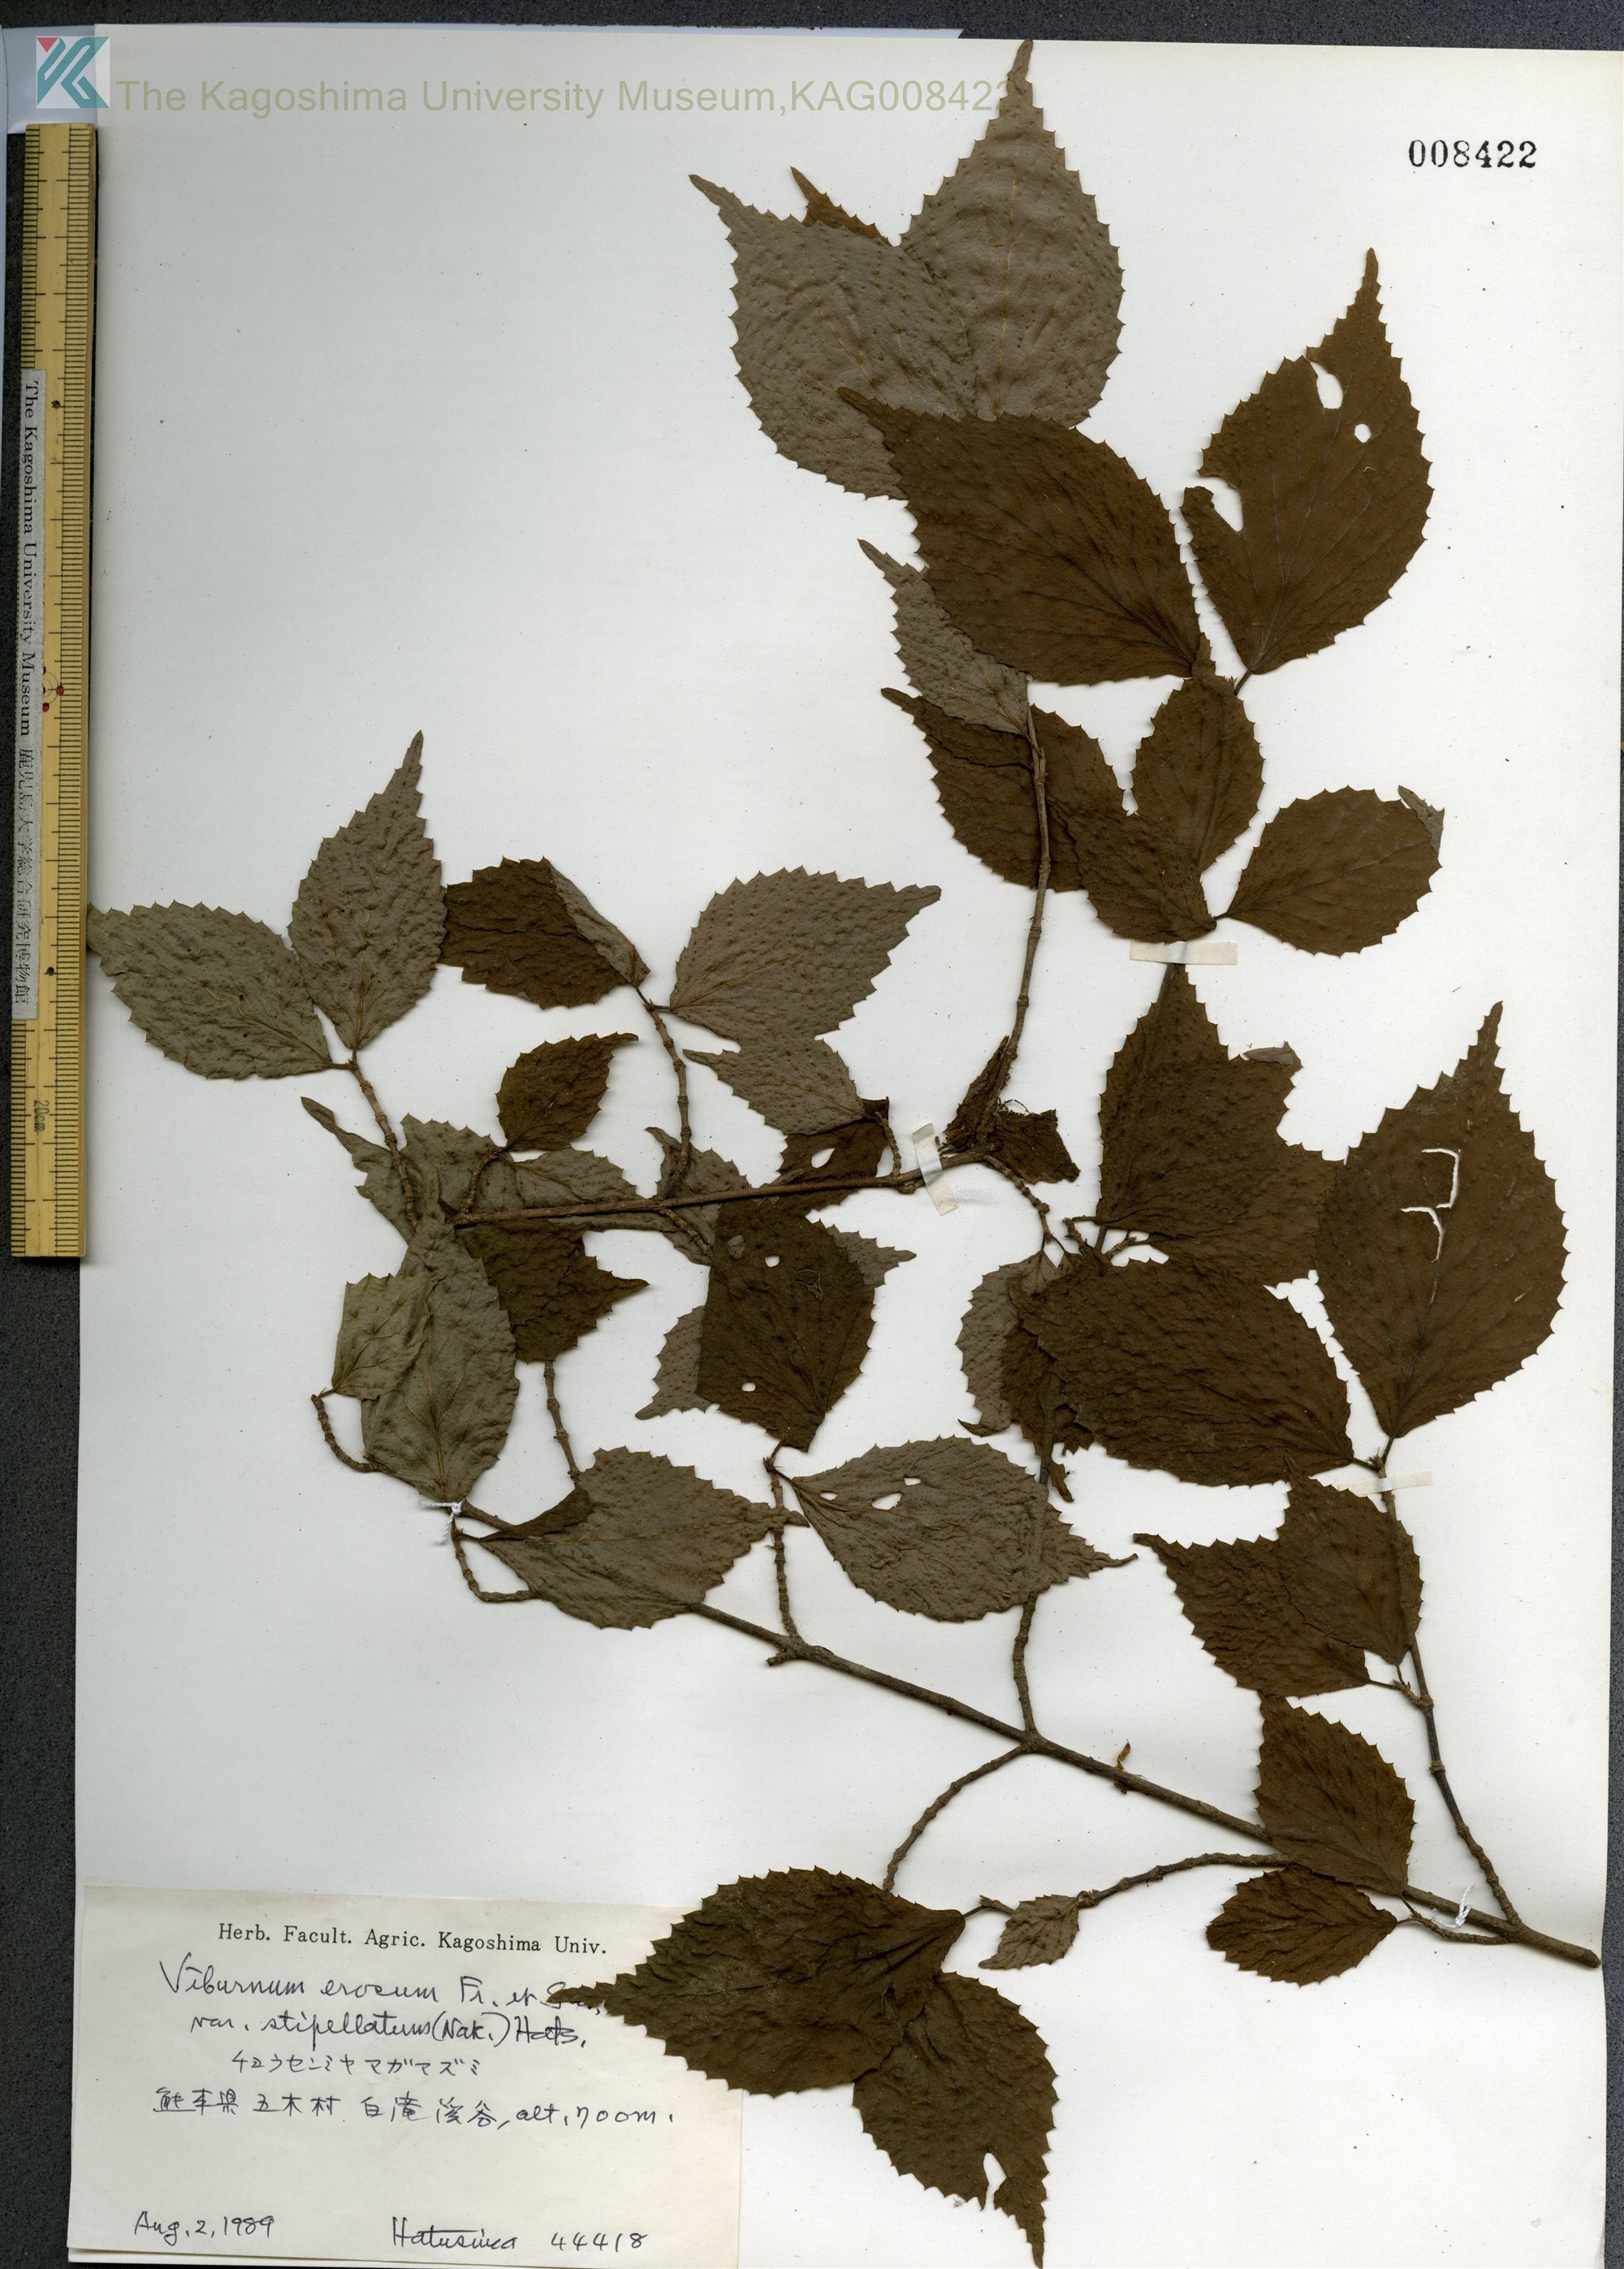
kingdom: Plantae
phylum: Tracheophyta
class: Magnoliopsida
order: Dipsacales
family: Viburnaceae
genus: Viburnum
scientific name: Viburnum erosum
